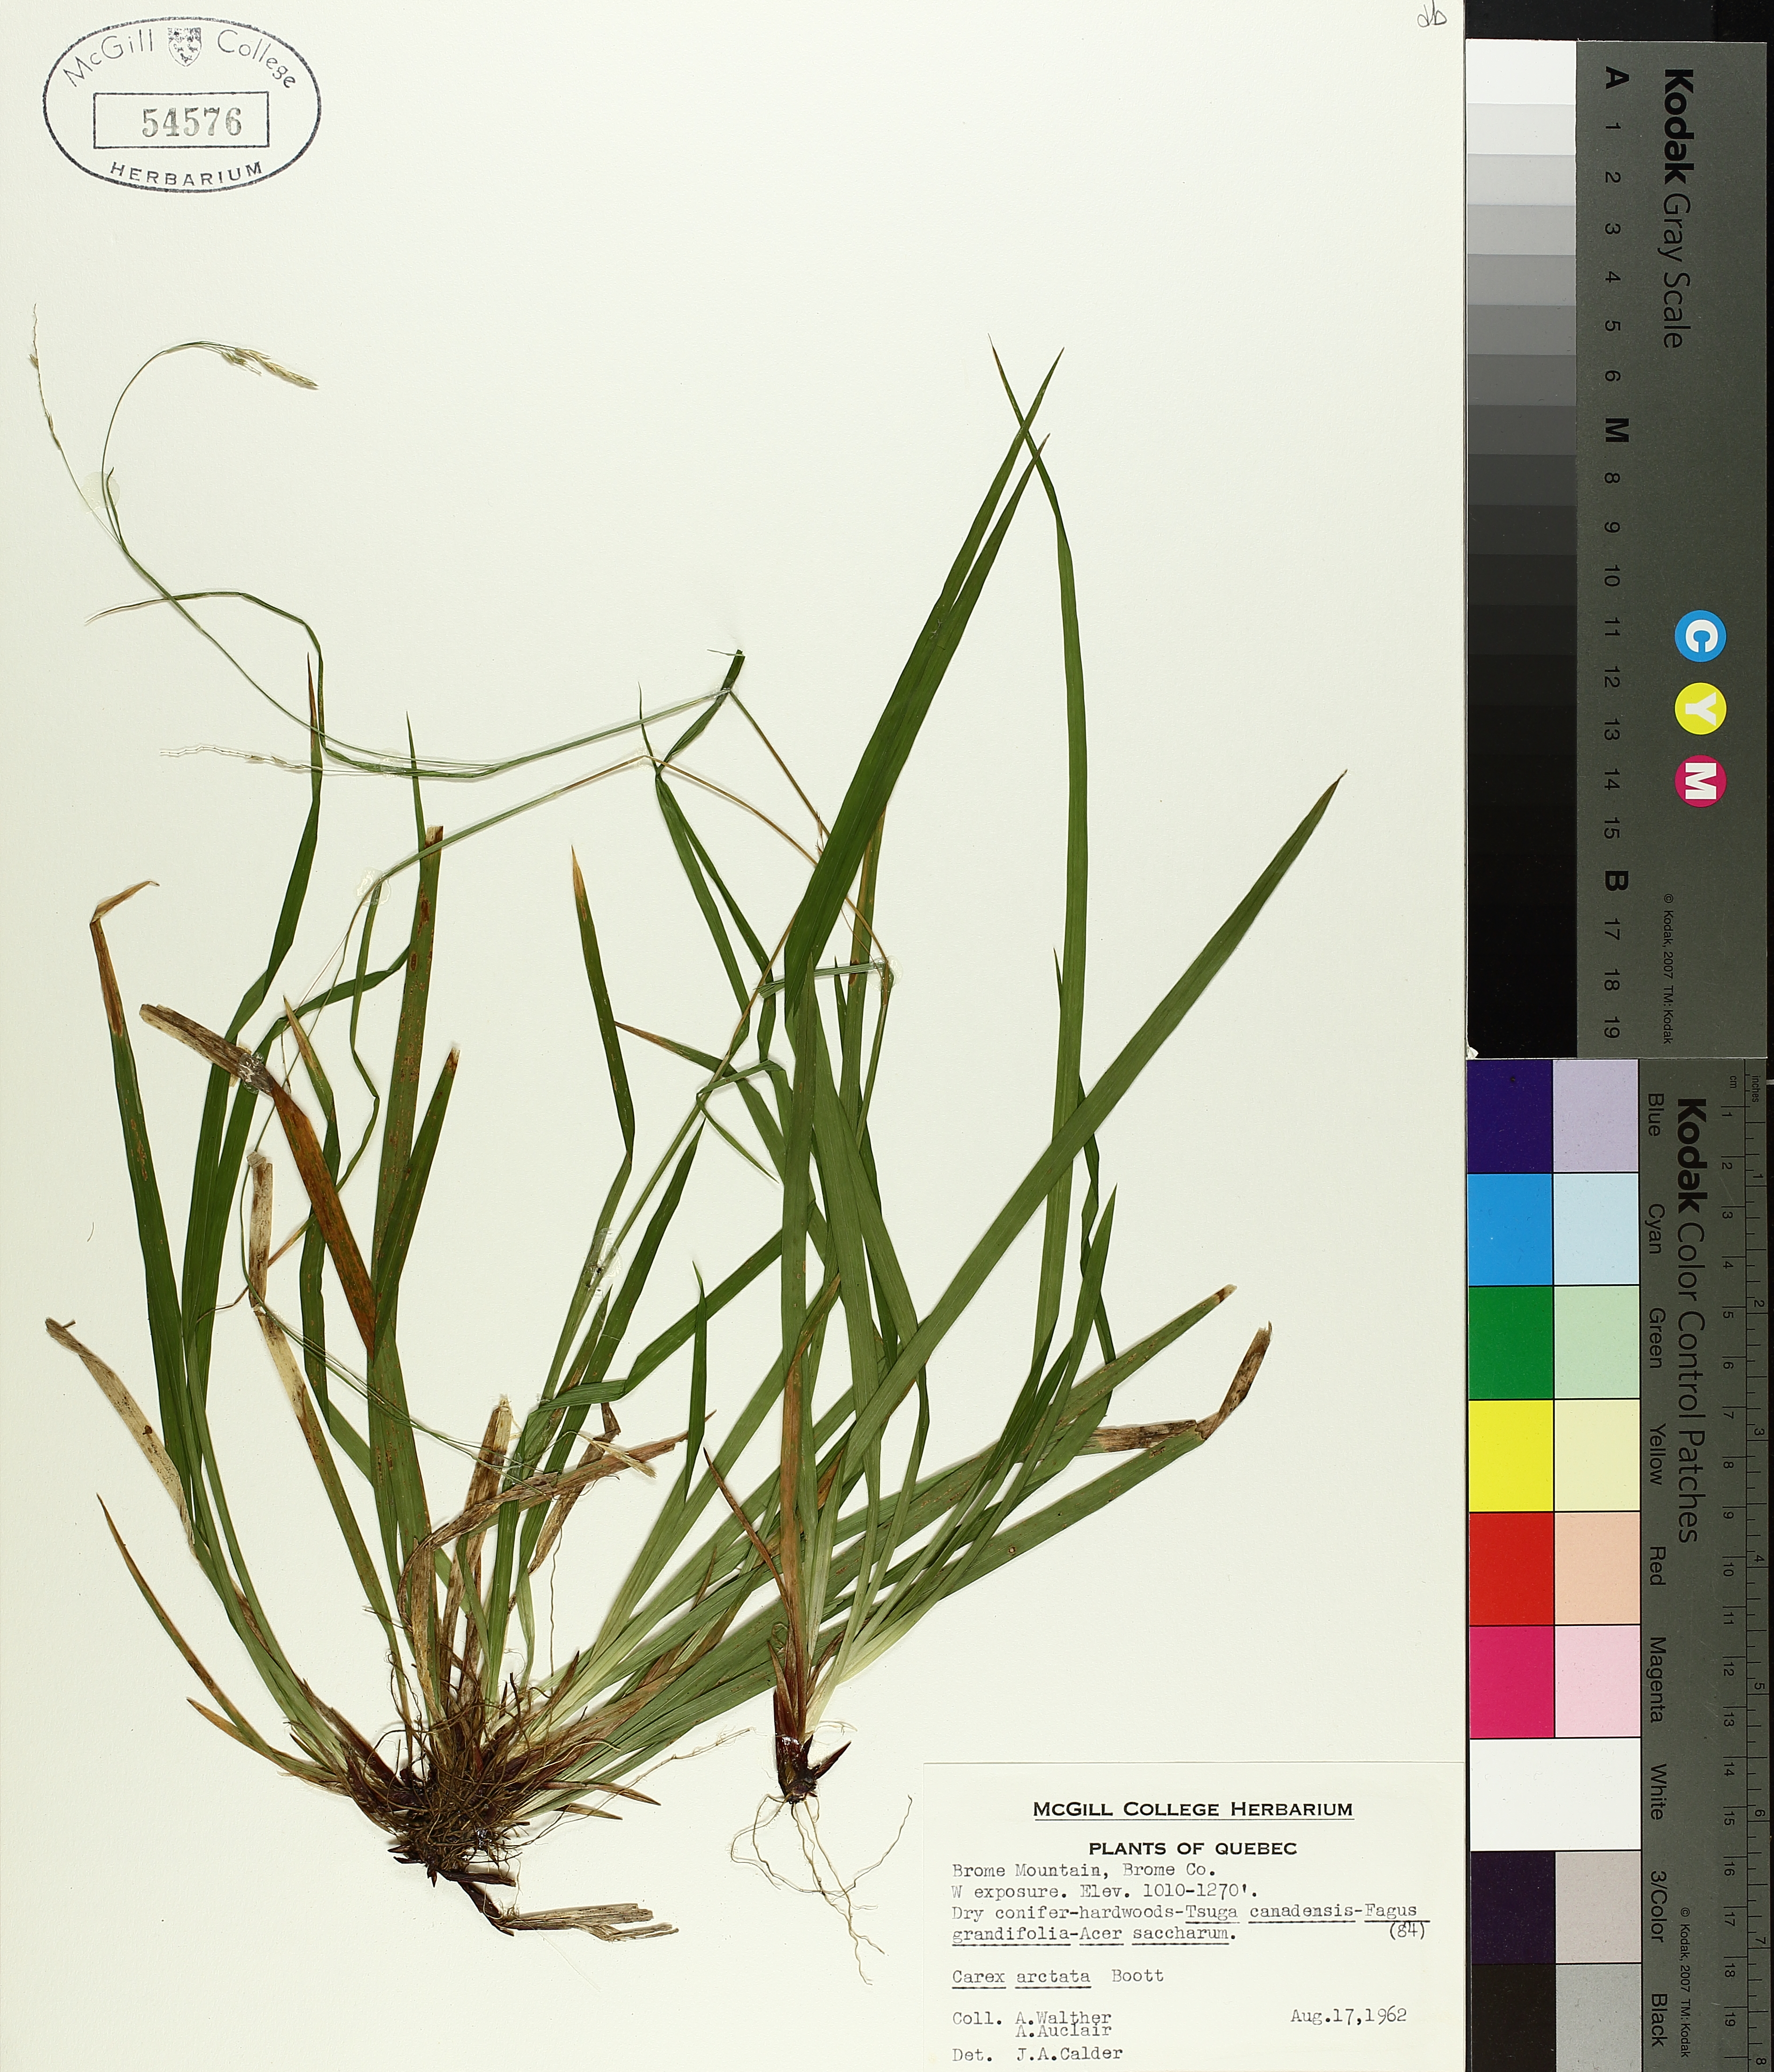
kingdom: Plantae
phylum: Tracheophyta
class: Liliopsida
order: Poales
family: Cyperaceae
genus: Carex
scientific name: Carex arctata
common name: Black sedge
